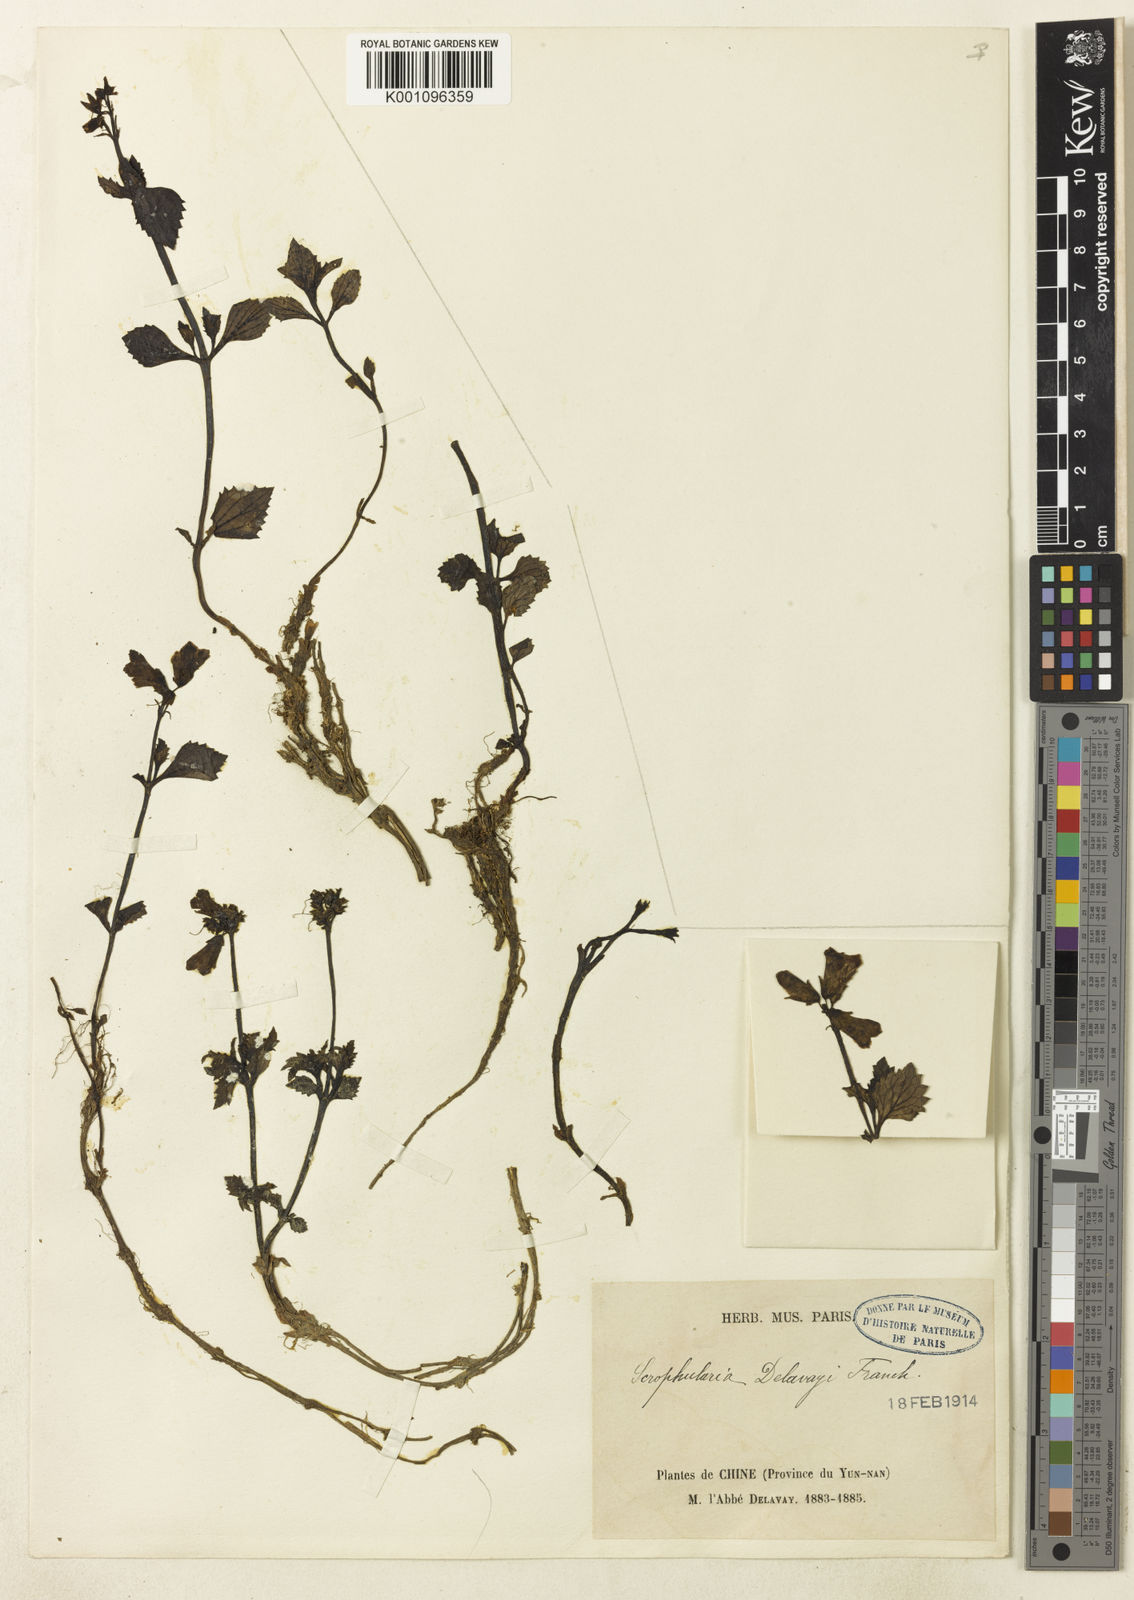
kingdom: Plantae
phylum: Tracheophyta
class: Magnoliopsida
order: Lamiales
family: Scrophulariaceae
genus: Scrophularia
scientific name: Scrophularia delavayi
